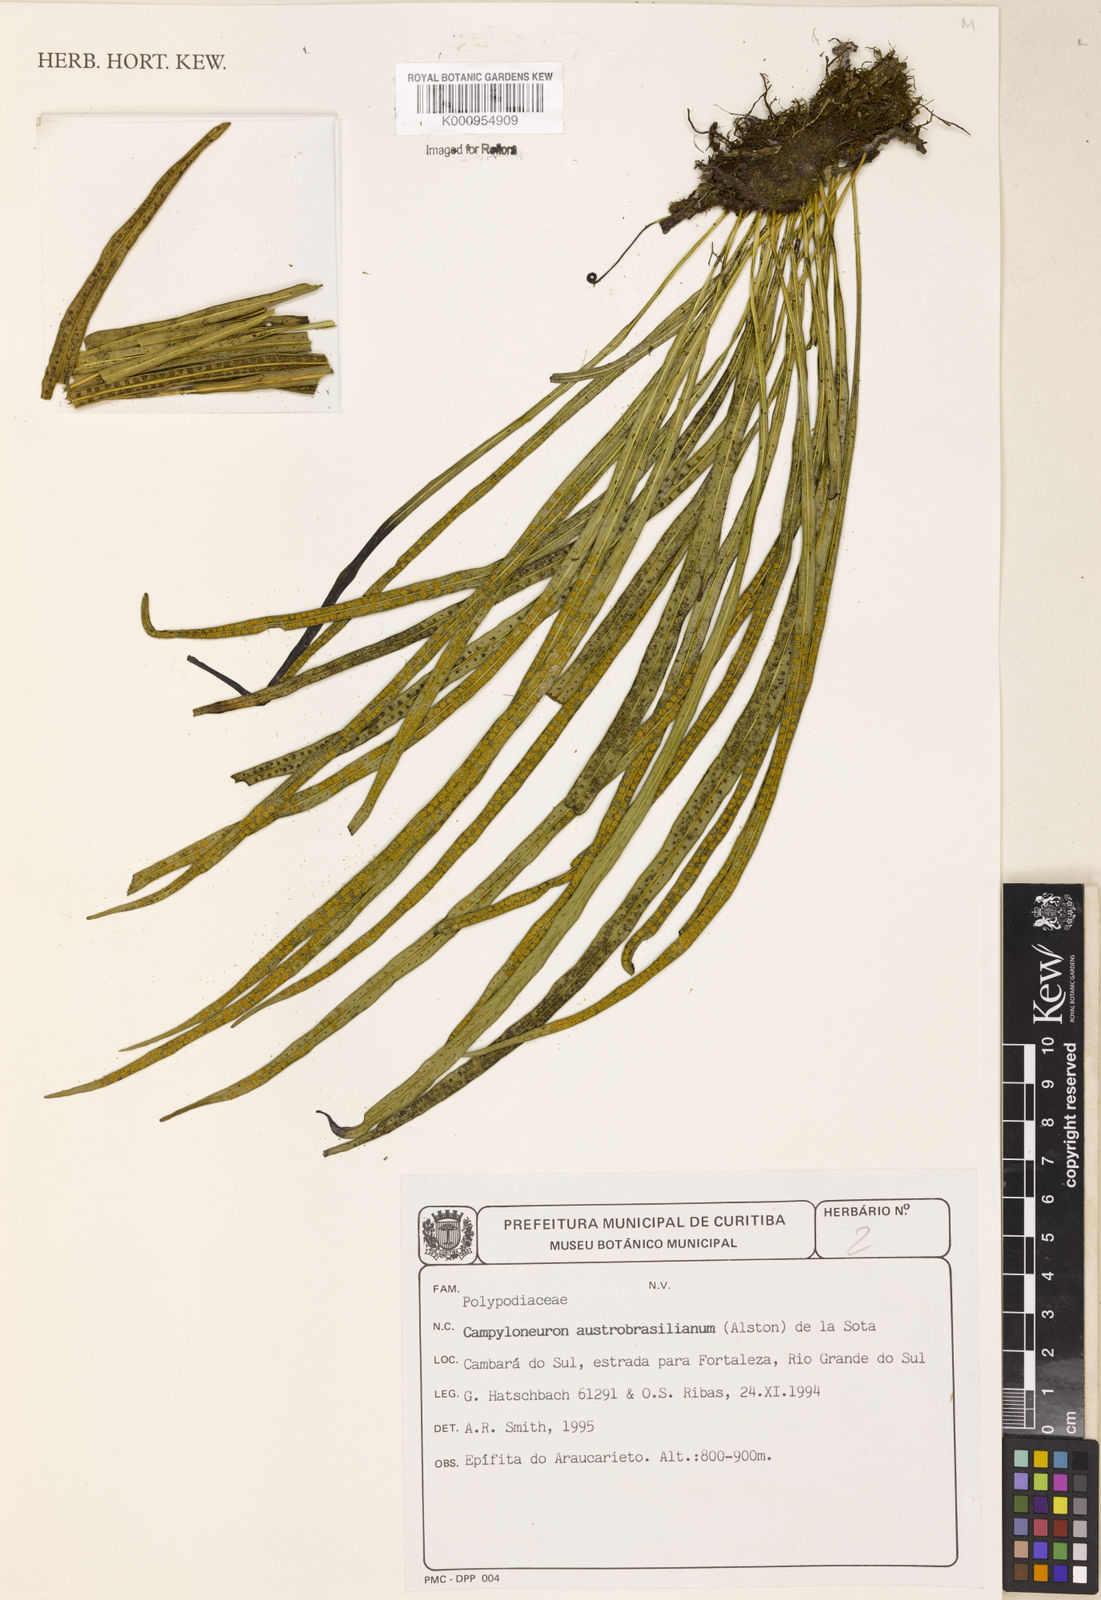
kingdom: Plantae
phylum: Tracheophyta
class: Polypodiopsida
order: Polypodiales
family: Polypodiaceae
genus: Campyloneurum
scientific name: Campyloneurum
